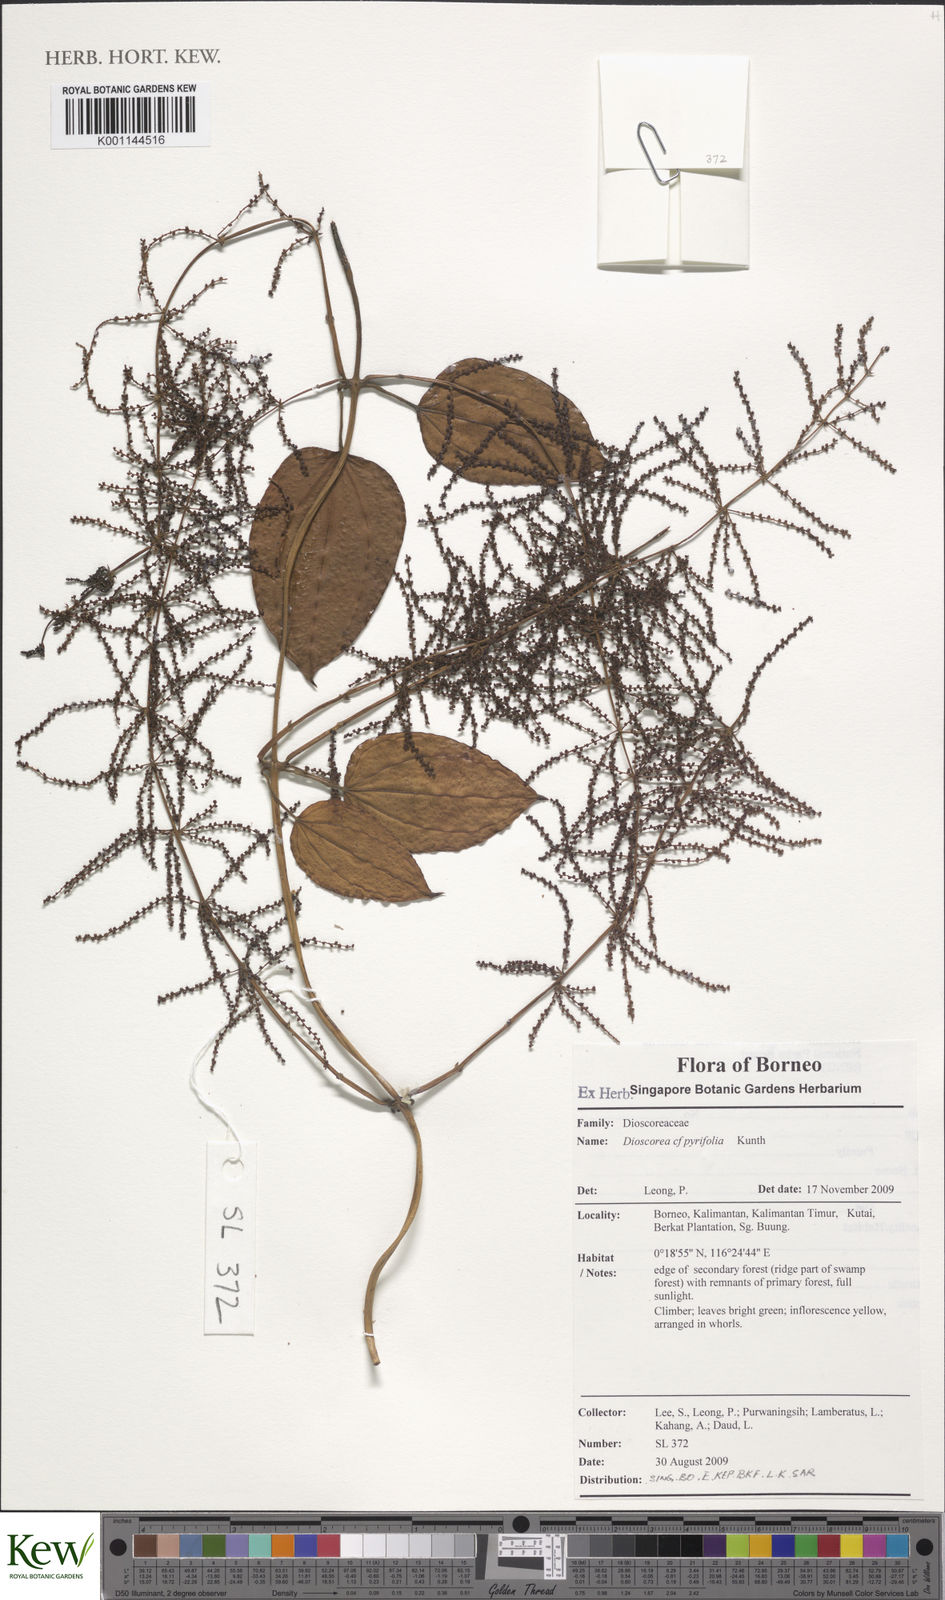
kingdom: Plantae
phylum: Tracheophyta
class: Liliopsida
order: Dioscoreales
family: Dioscoreaceae
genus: Dioscorea
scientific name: Dioscorea pyrifolia
